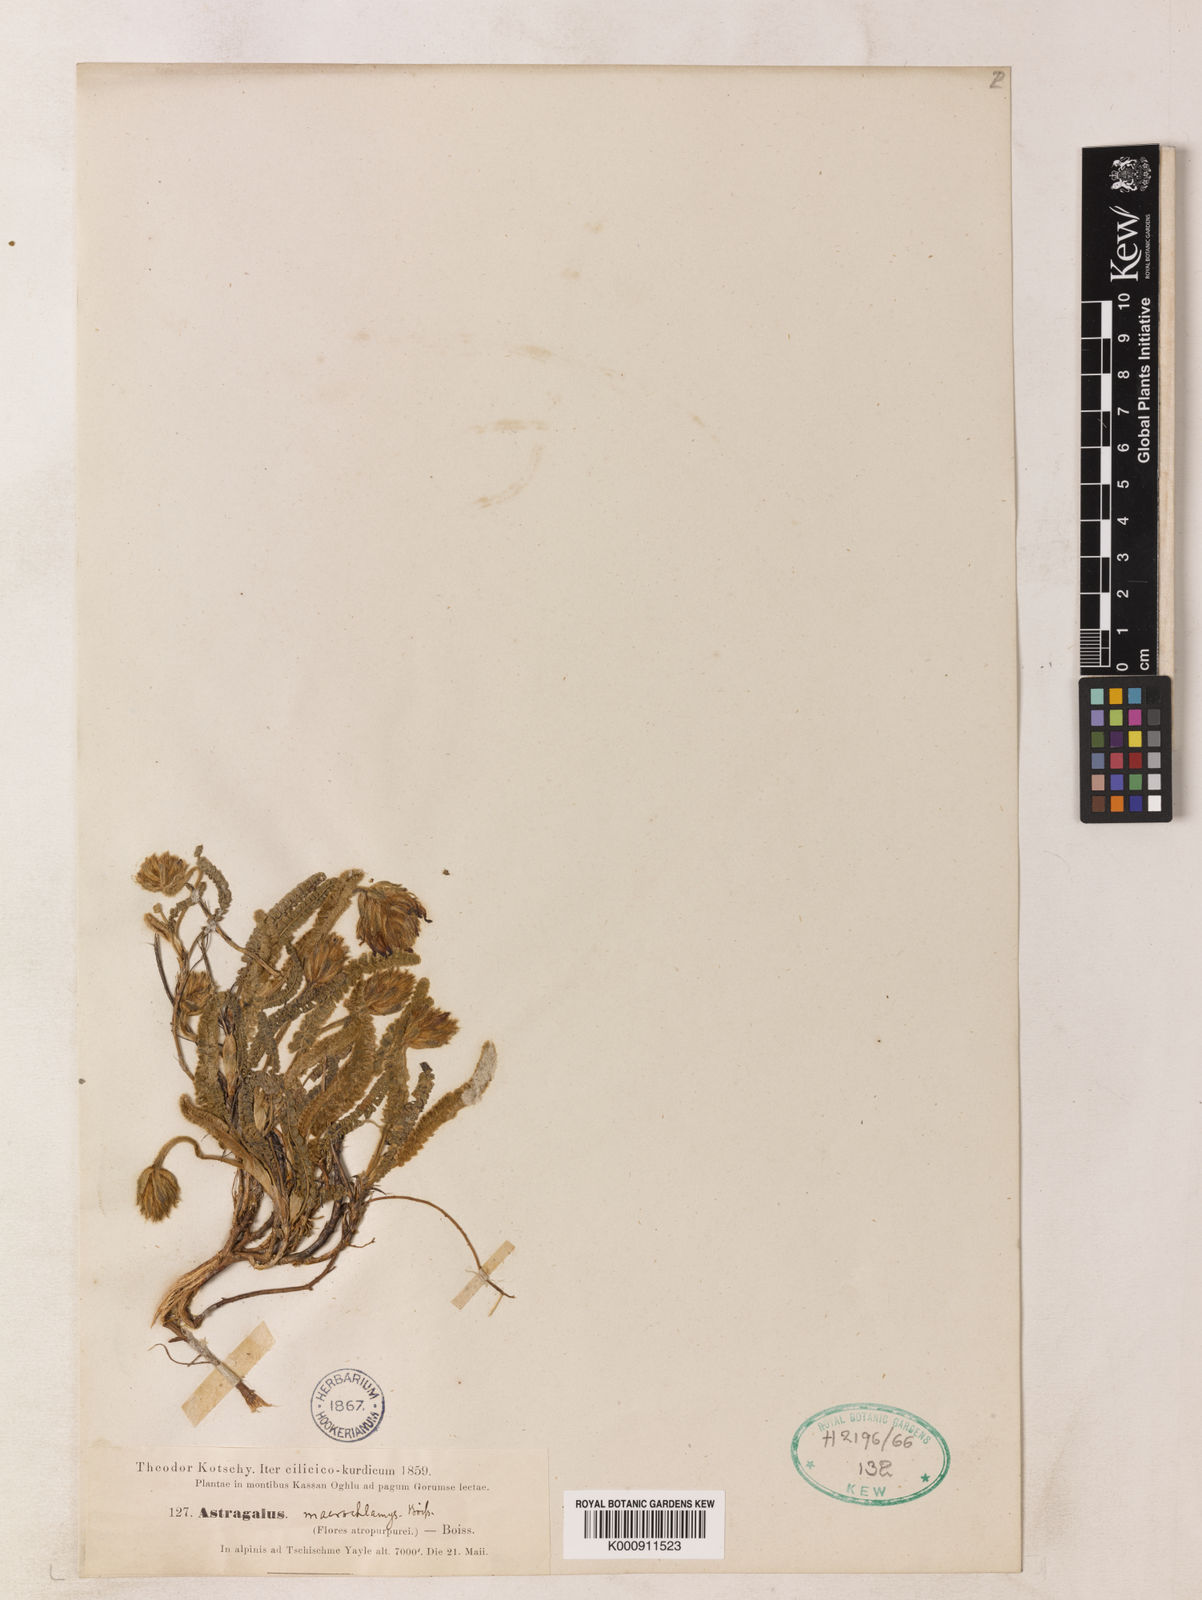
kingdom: Plantae
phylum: Tracheophyta
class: Magnoliopsida
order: Fabales
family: Fabaceae
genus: Astragalus
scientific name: Astragalus densifolius
